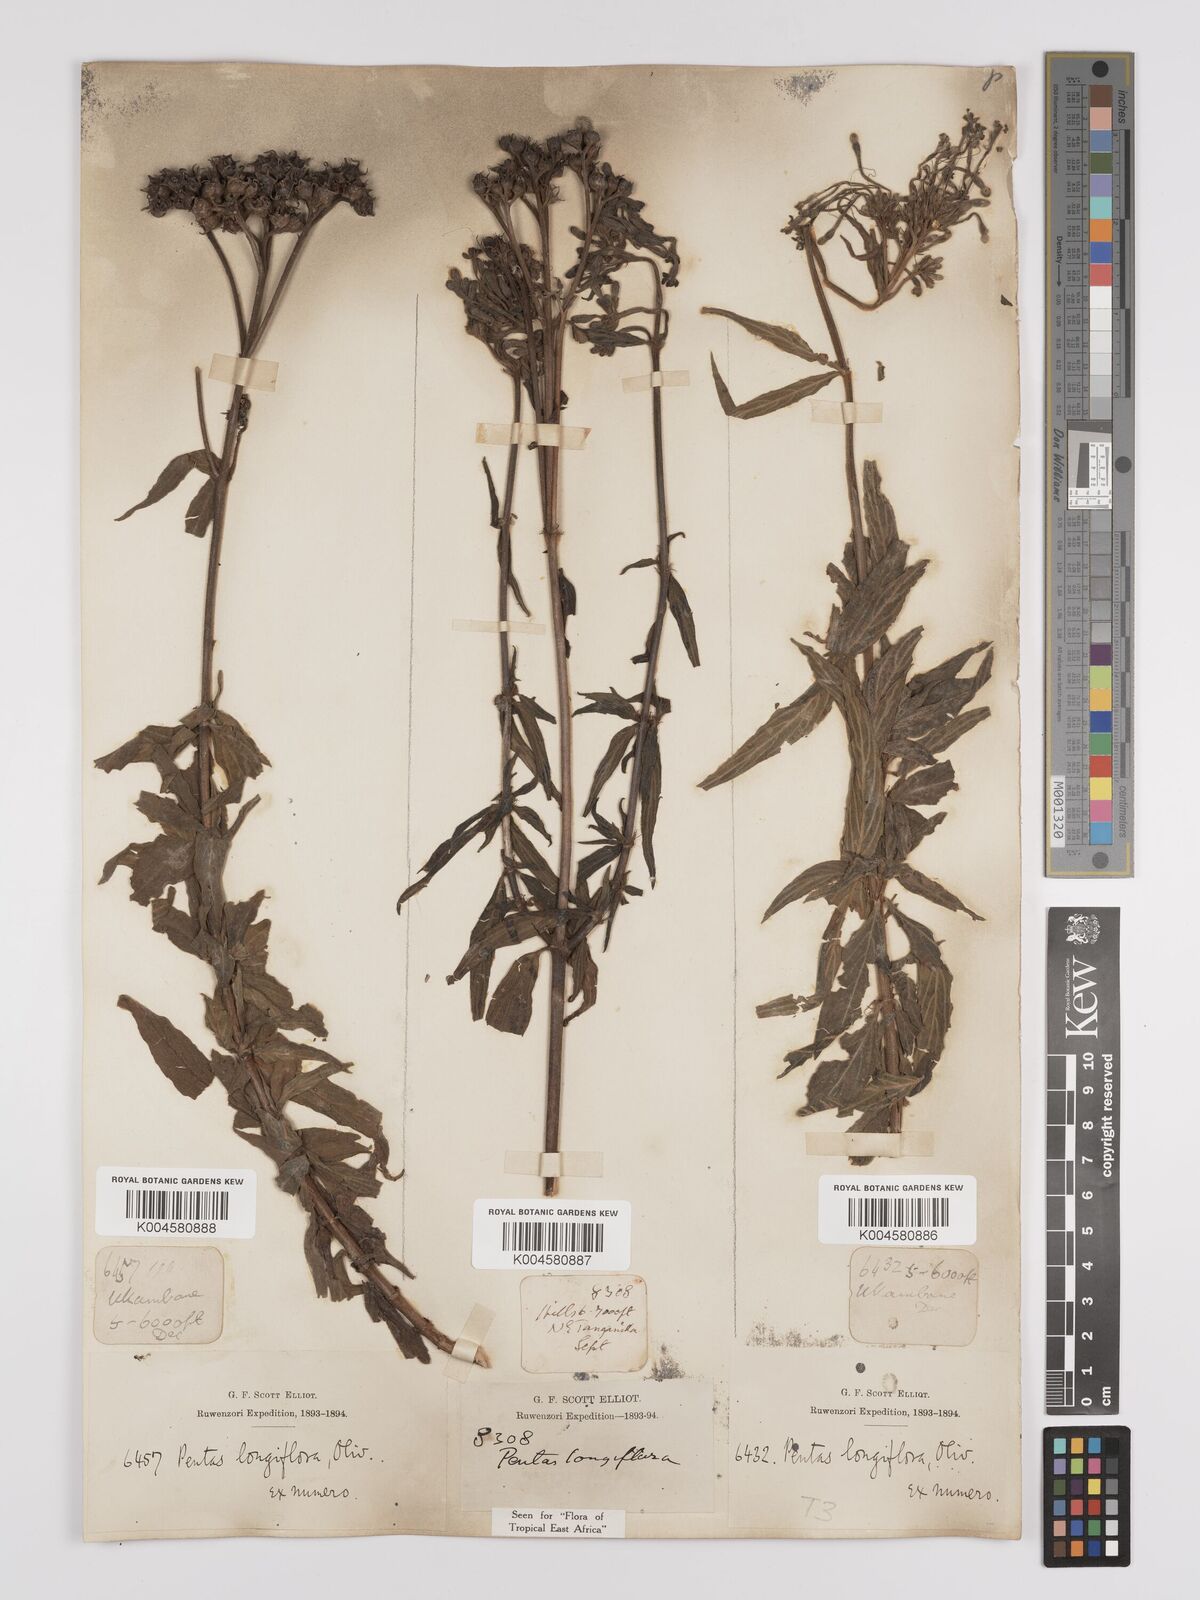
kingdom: Plantae
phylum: Tracheophyta
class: Magnoliopsida
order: Gentianales
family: Rubiaceae
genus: Dolichopentas
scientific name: Dolichopentas longiflora
